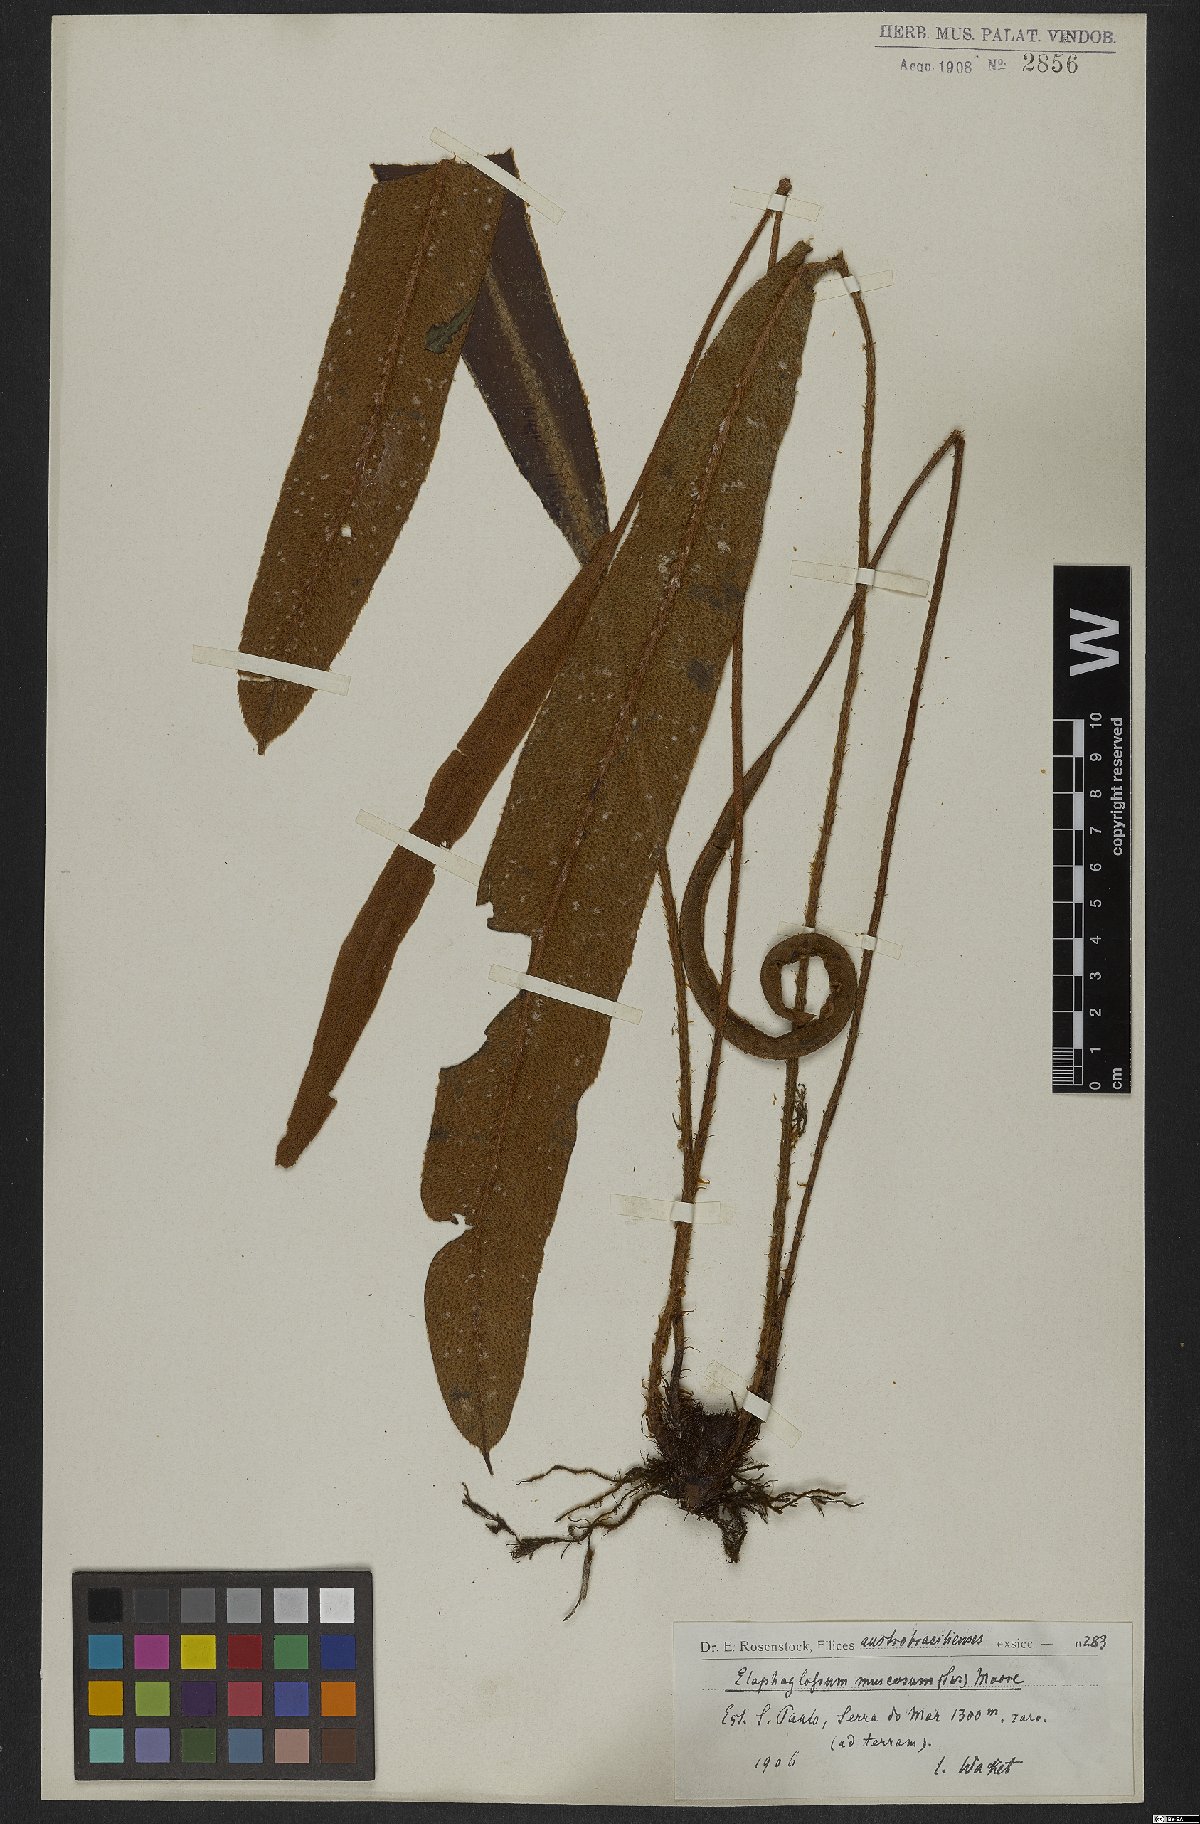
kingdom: Plantae
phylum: Tracheophyta
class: Polypodiopsida
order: Polypodiales
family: Dryopteridaceae
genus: Elaphoglossum
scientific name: Elaphoglossum langsdorffii
